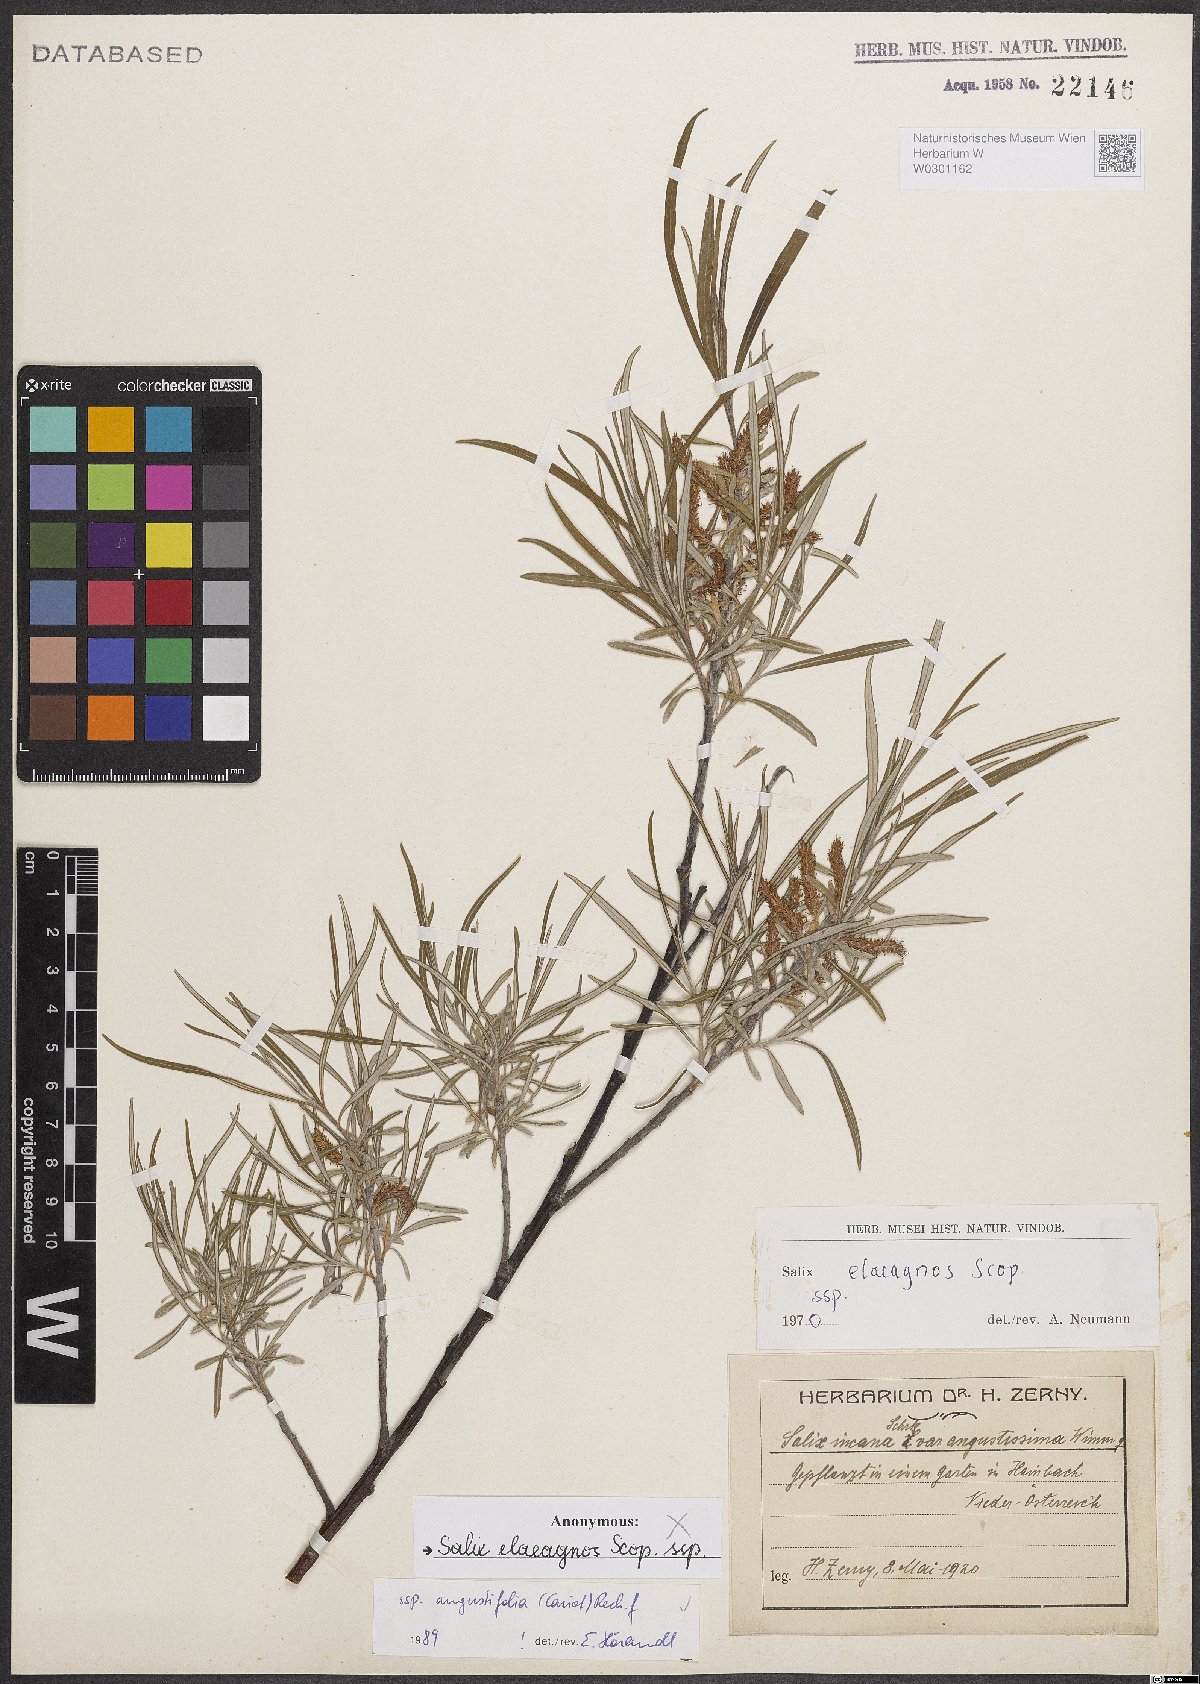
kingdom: Plantae
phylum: Tracheophyta
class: Magnoliopsida
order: Malpighiales
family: Salicaceae
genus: Salix
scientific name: Salix eleagnos
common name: Elaeagnus willow
